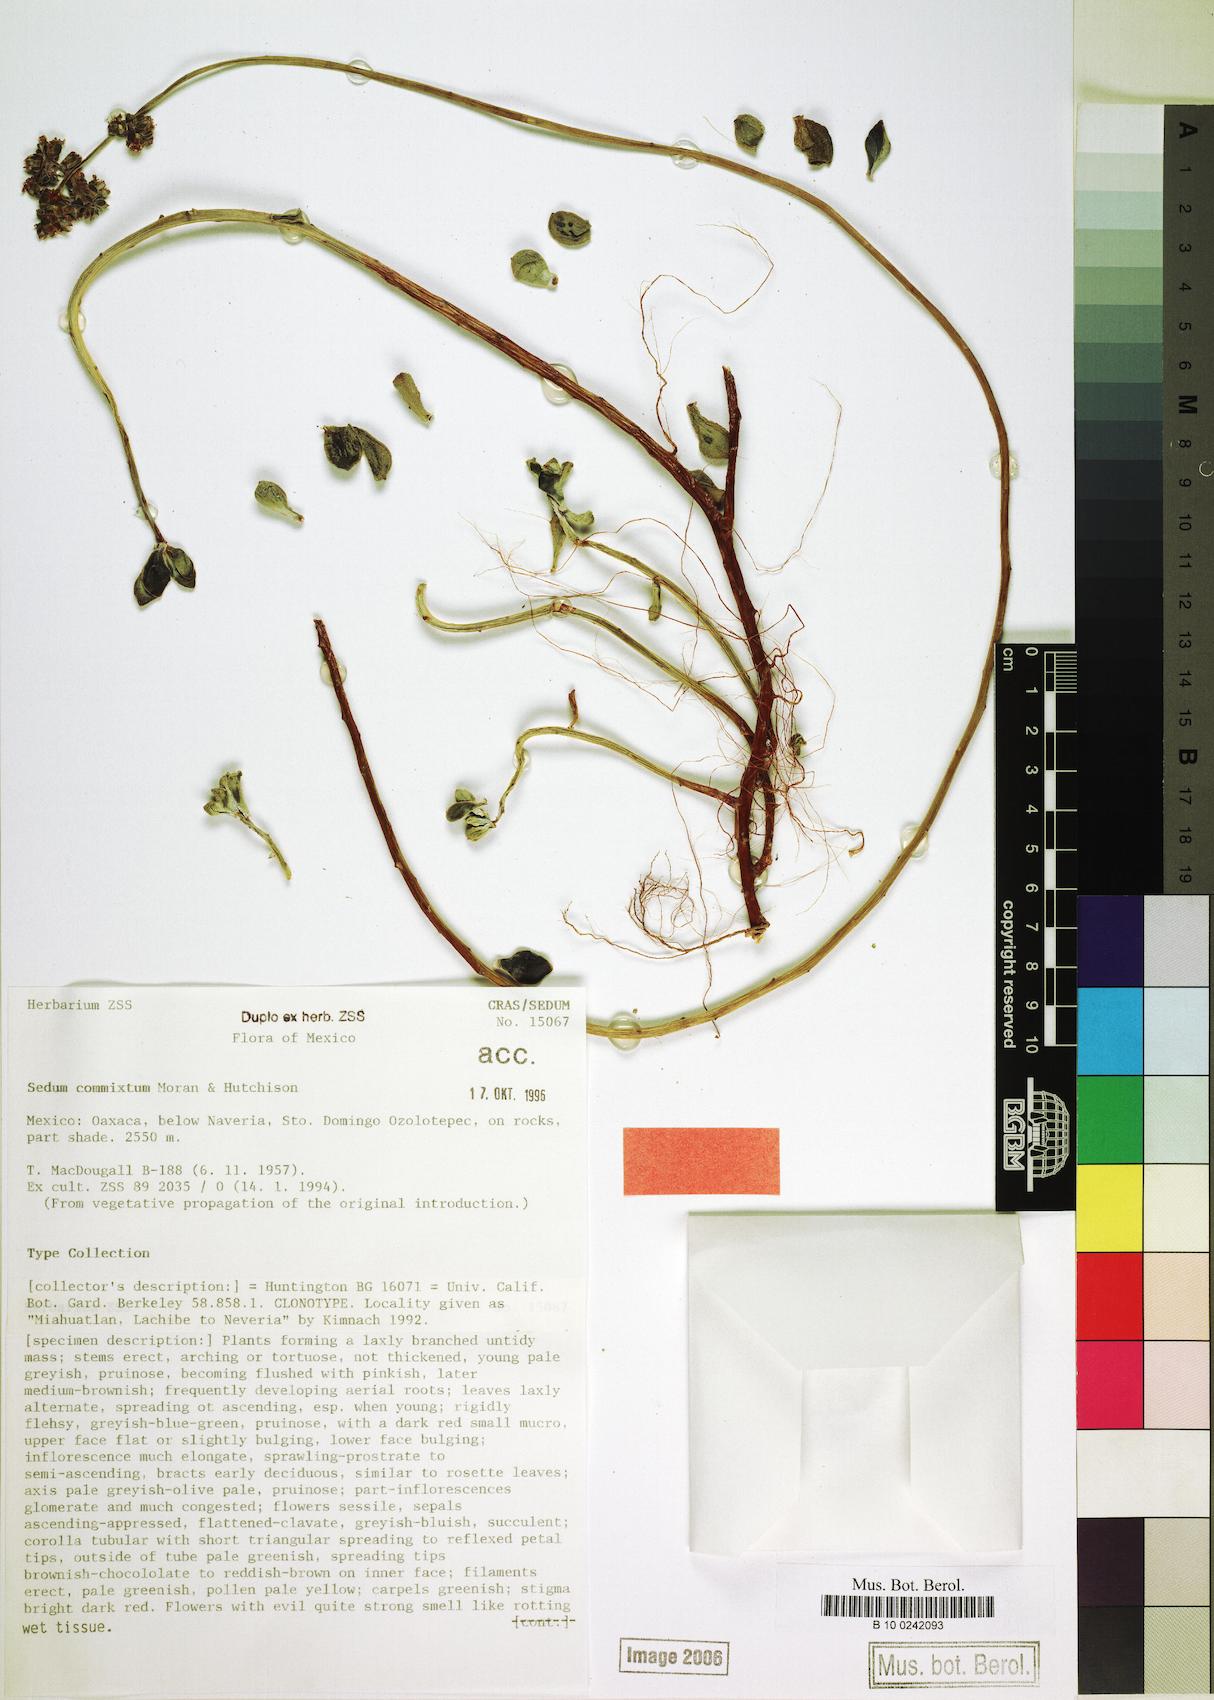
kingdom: Plantae
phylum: Tracheophyta
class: Magnoliopsida
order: Saxifragales
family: Crassulaceae
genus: Sedum
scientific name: Sedum commixtum
